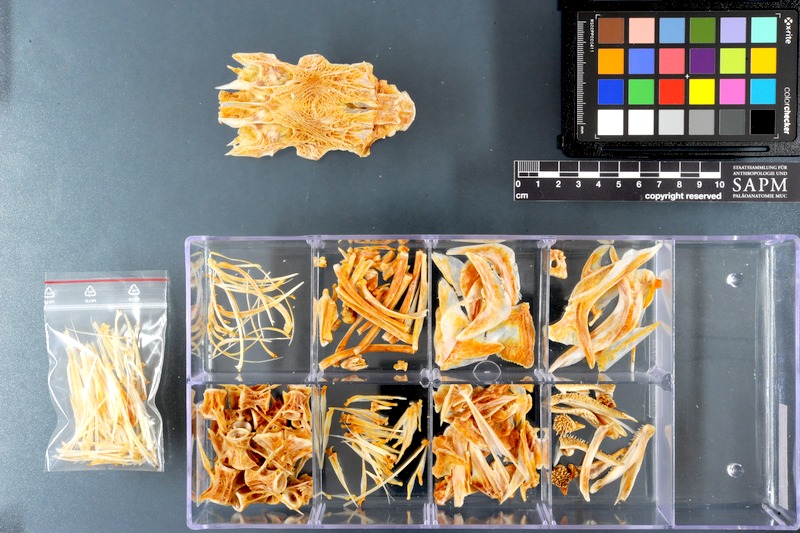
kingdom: Animalia
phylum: Chordata
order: Perciformes
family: Rachycentridae
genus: Rachycentron
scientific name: Rachycentron canadum
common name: Cobia
